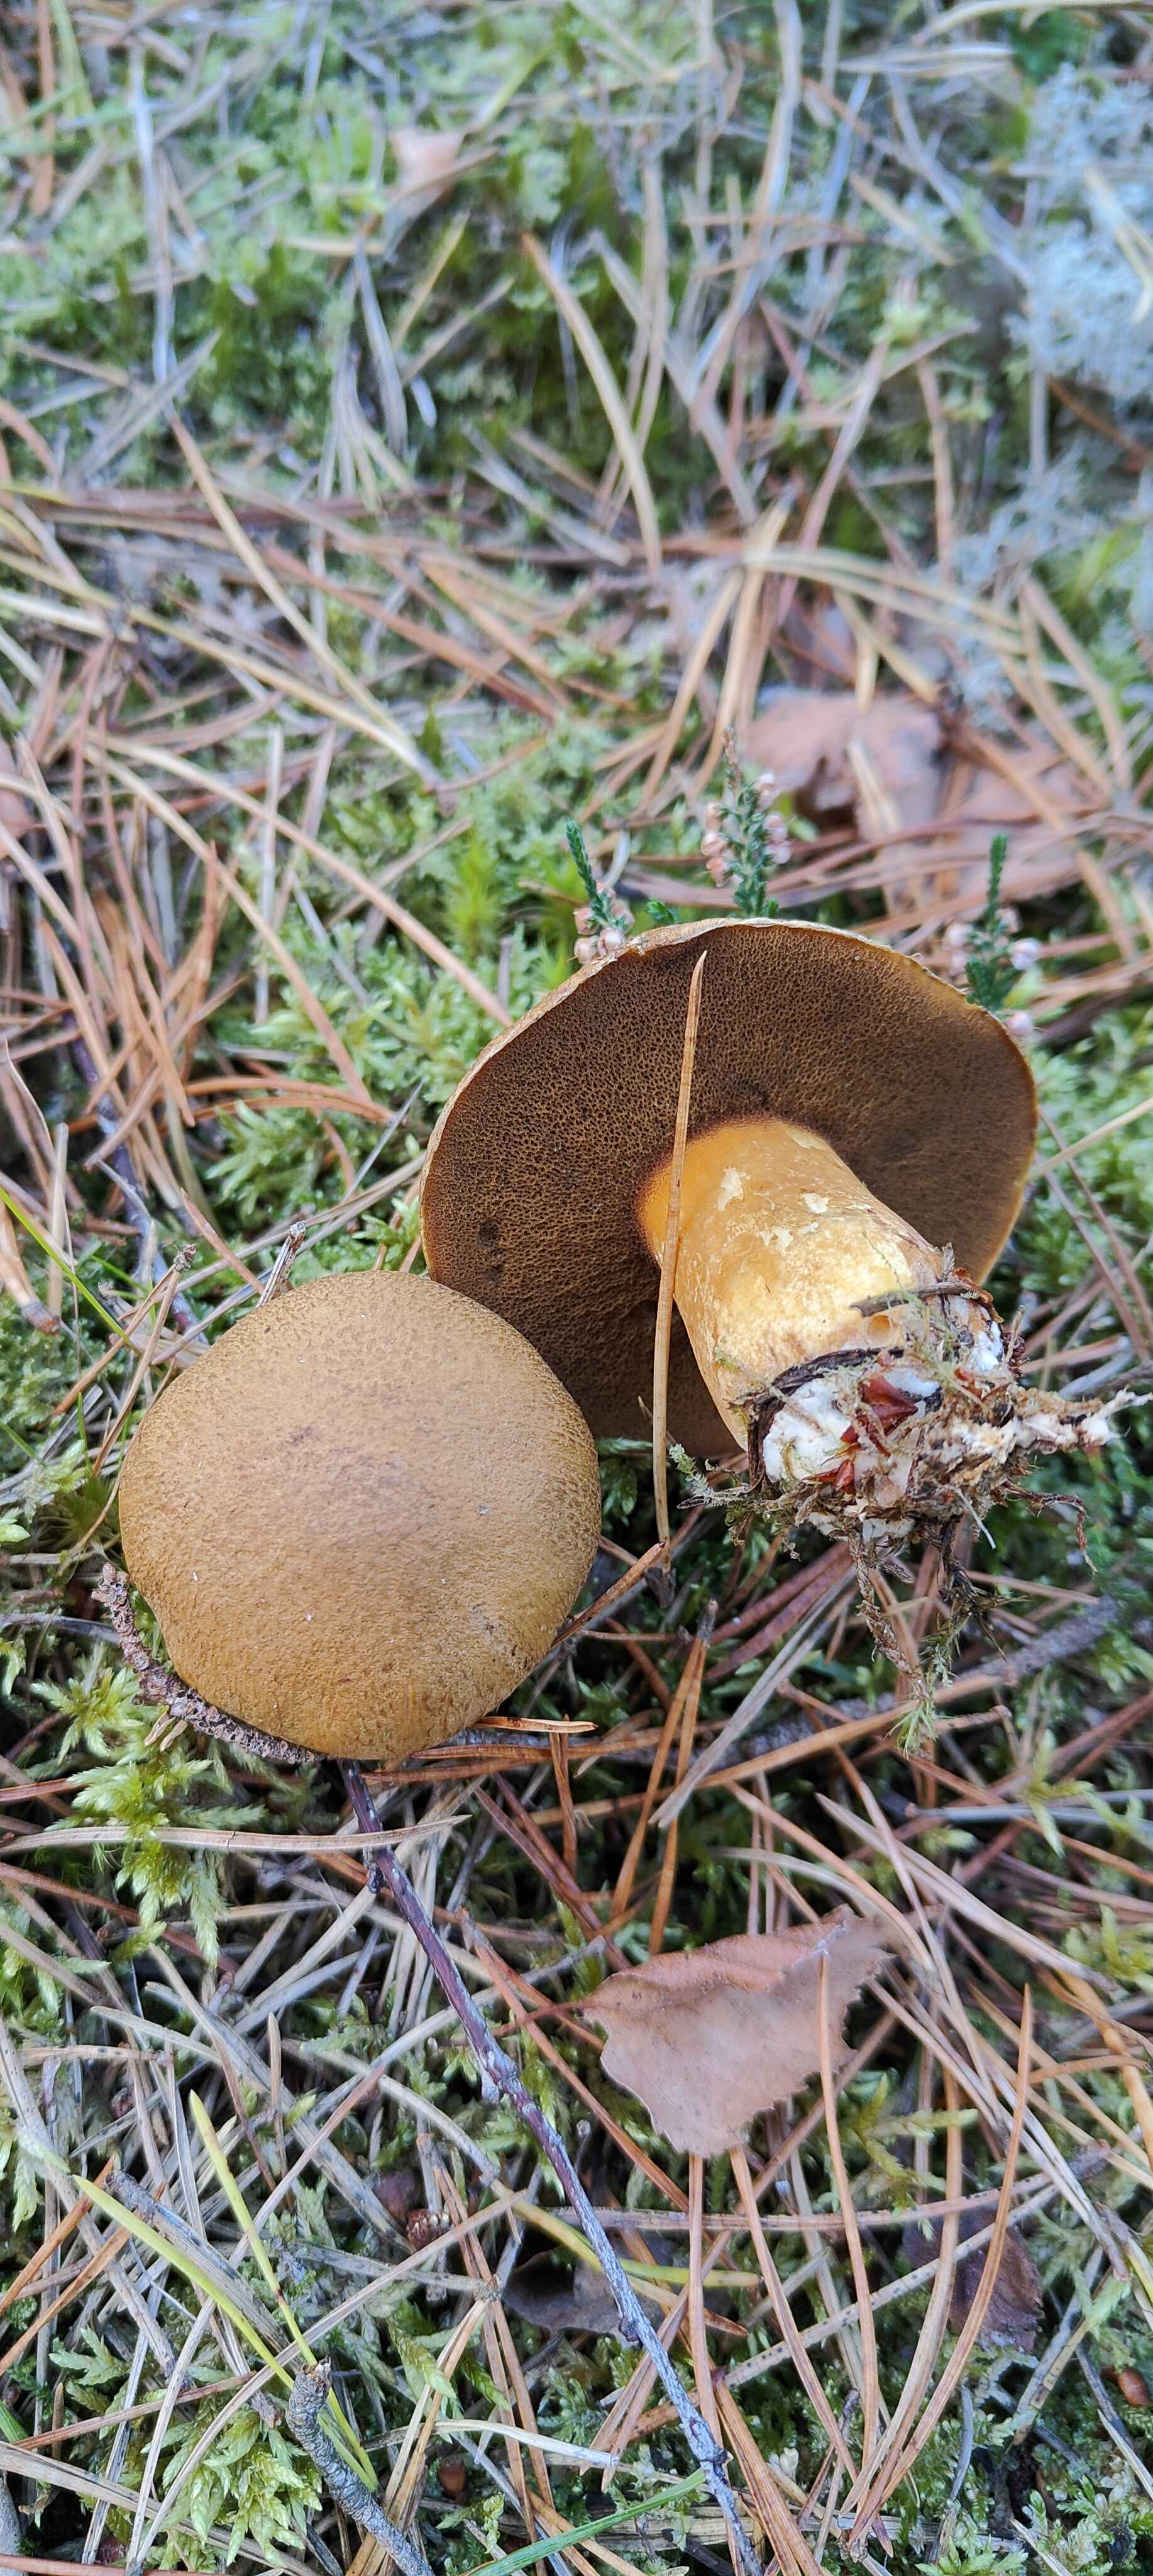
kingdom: Fungi
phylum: Basidiomycota
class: Agaricomycetes
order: Boletales
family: Suillaceae
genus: Suillus
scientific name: Suillus variegatus
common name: broget slimrørhat
